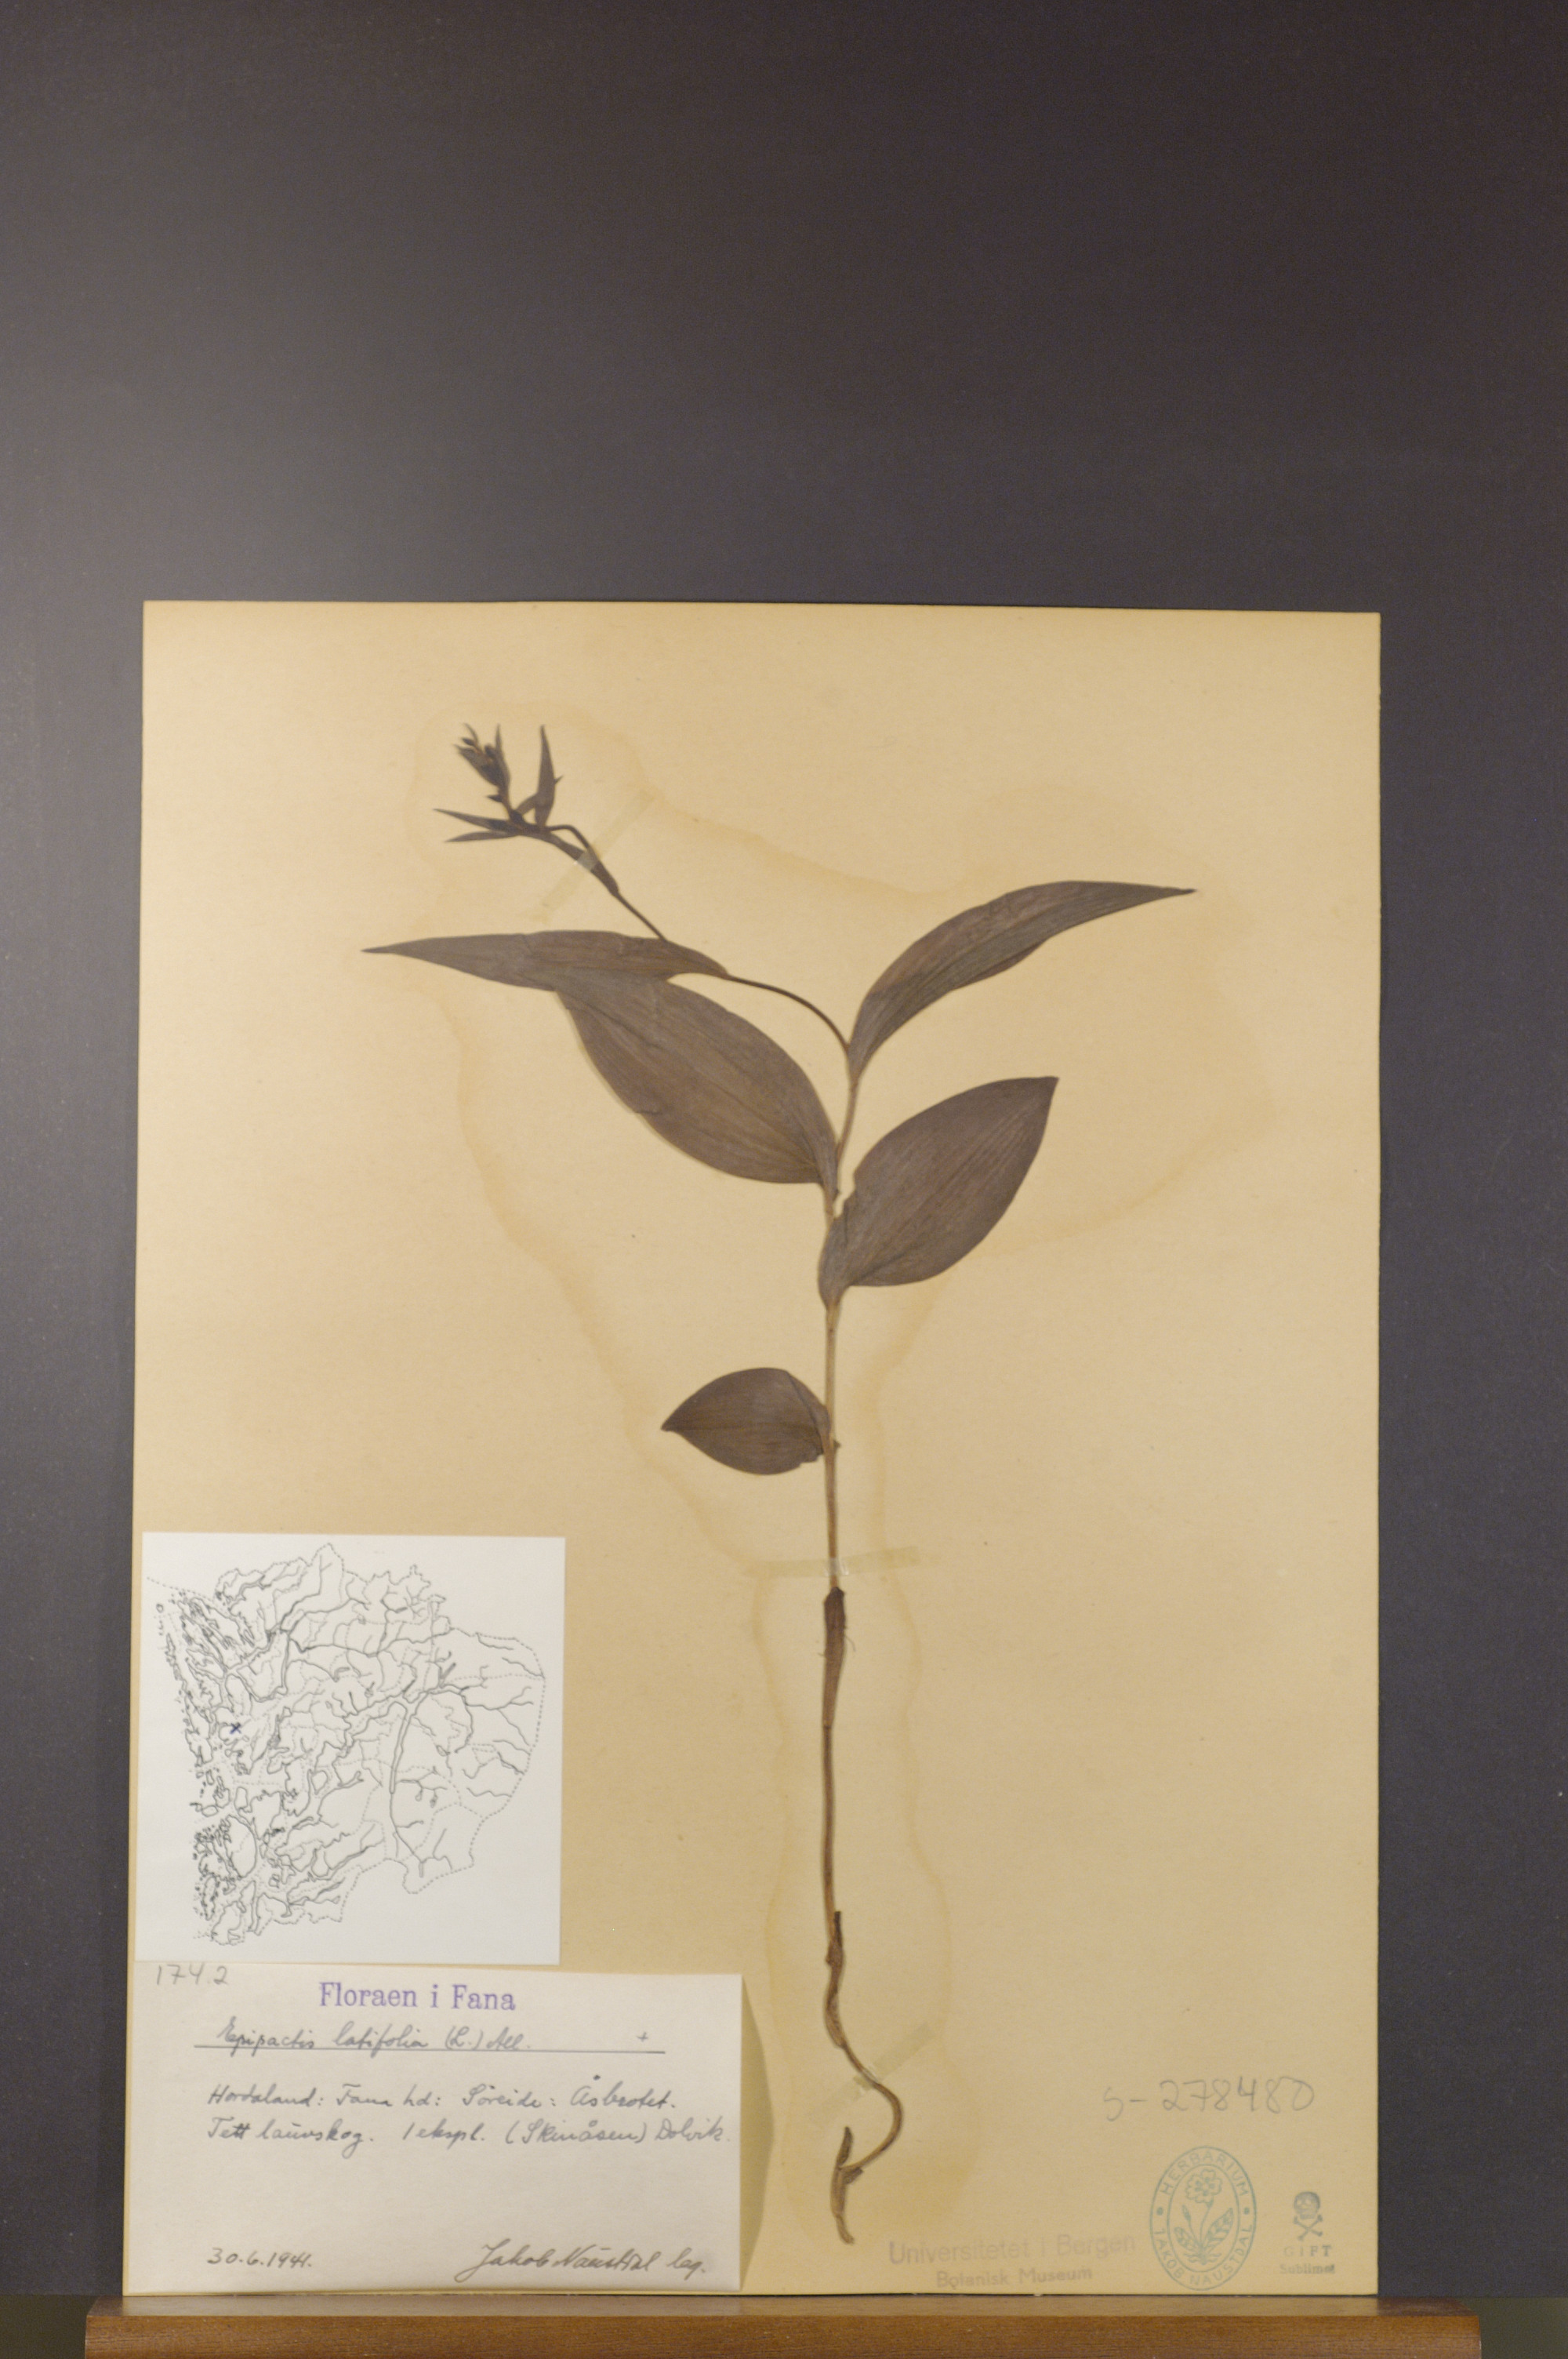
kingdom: Plantae
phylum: Tracheophyta
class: Liliopsida
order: Asparagales
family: Orchidaceae
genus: Epipactis
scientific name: Epipactis helleborine
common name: Broad-leaved helleborine
